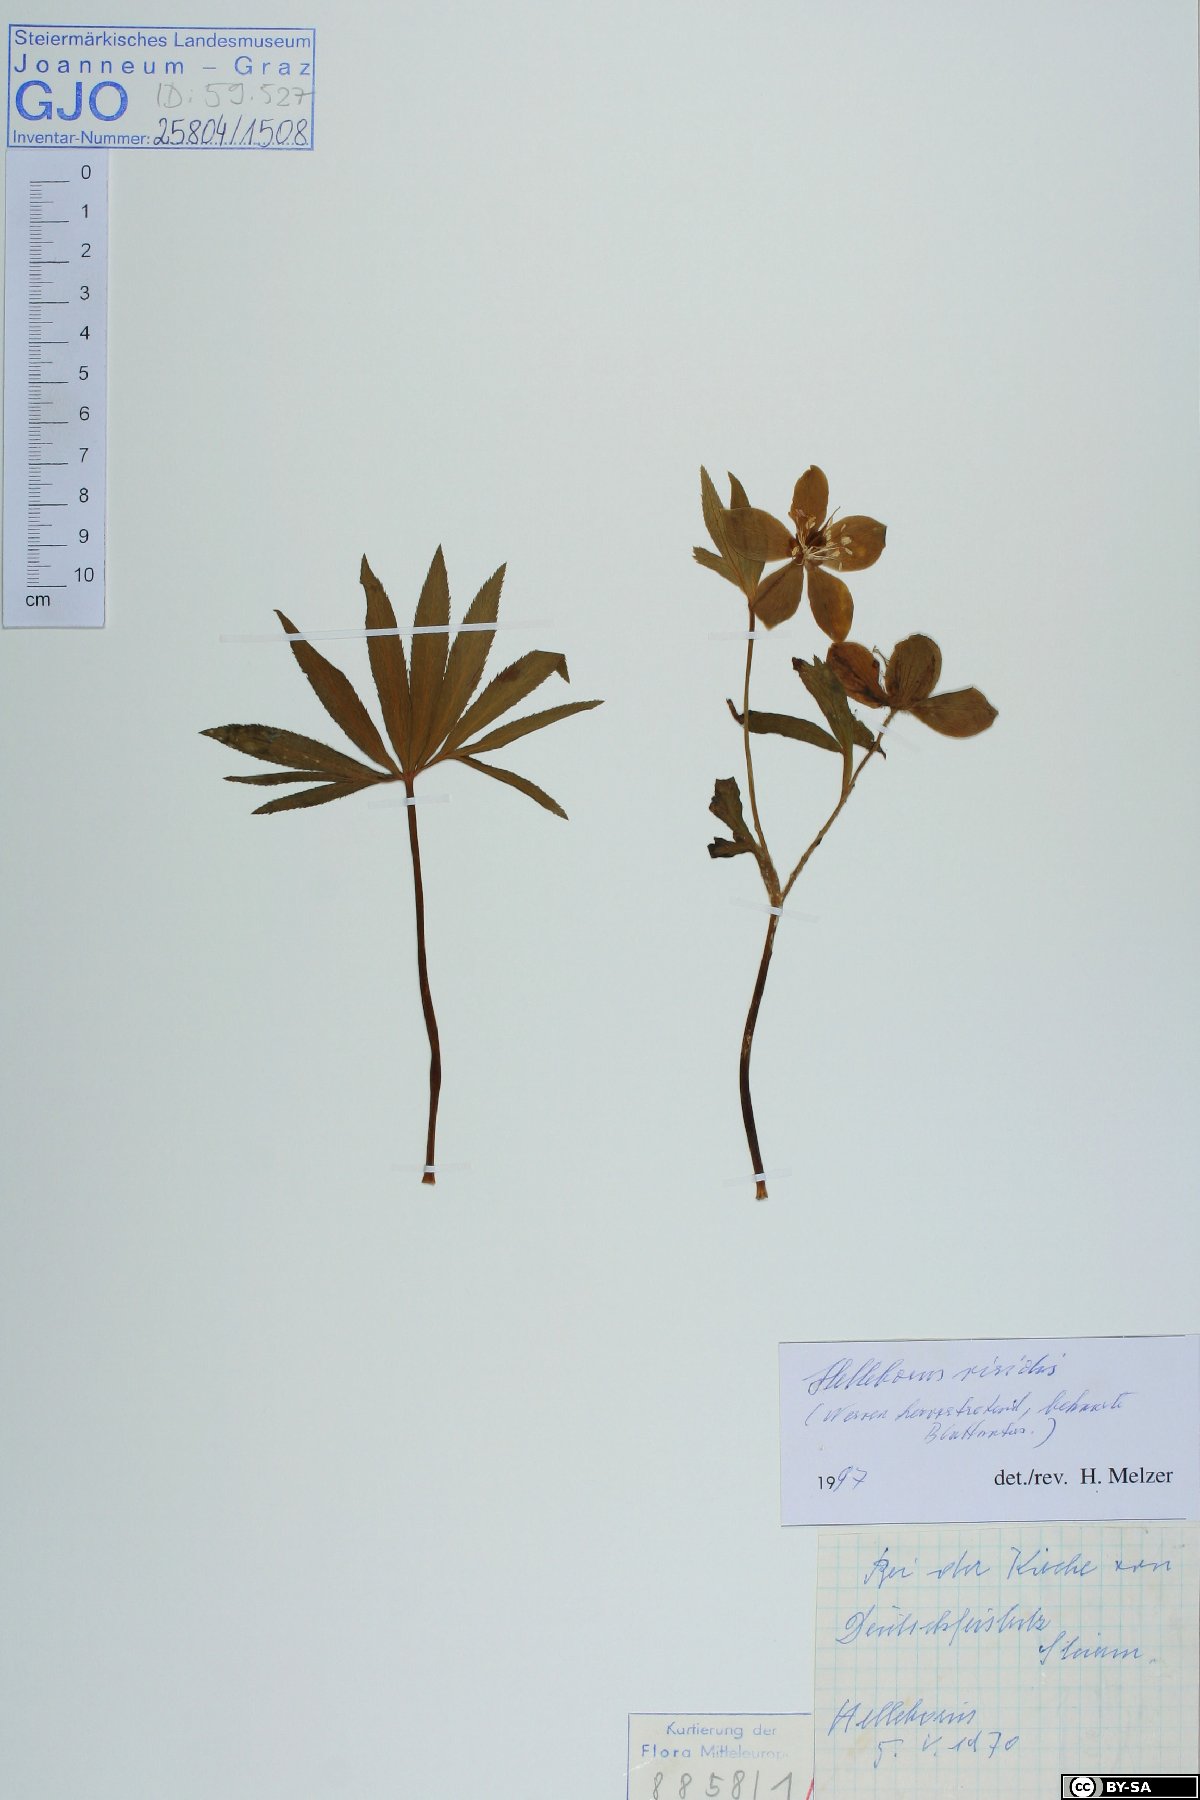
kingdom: Plantae
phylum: Tracheophyta
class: Magnoliopsida
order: Ranunculales
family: Ranunculaceae
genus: Helleborus
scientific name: Helleborus viridis
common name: Green hellebore
